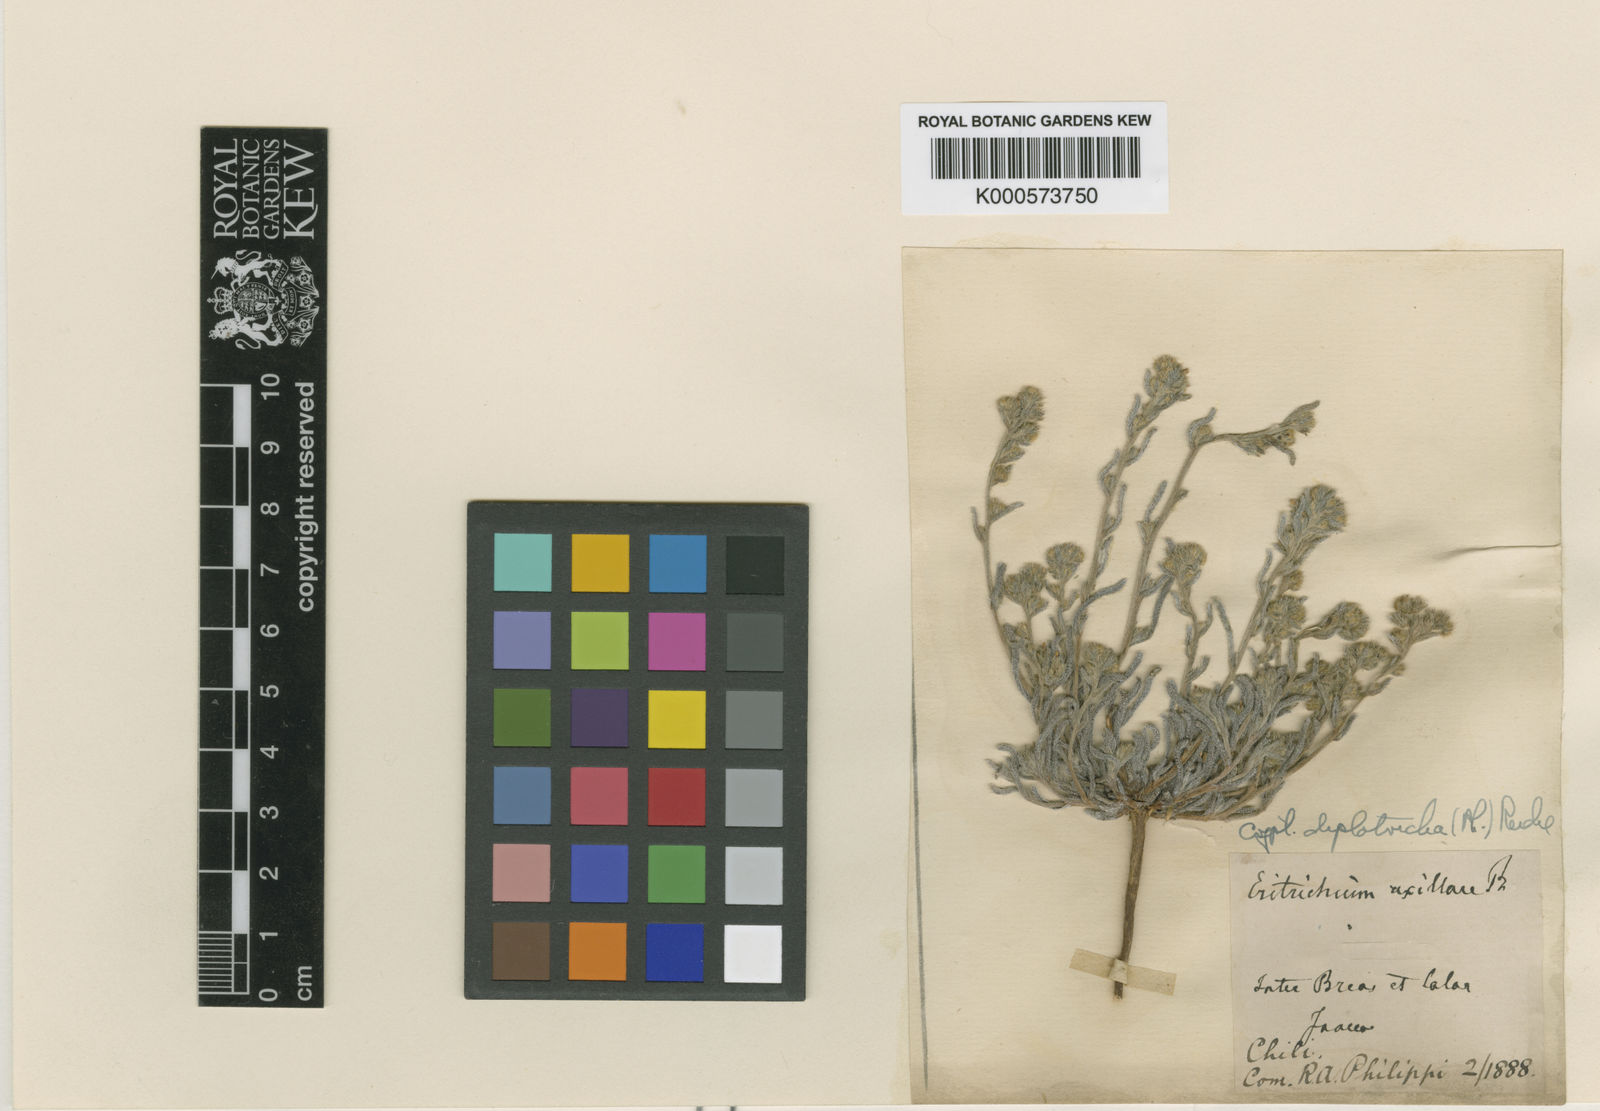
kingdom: Plantae
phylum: Tracheophyta
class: Magnoliopsida
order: Boraginales
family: Boraginaceae
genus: Johnstonella
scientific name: Johnstonella diplotricha
